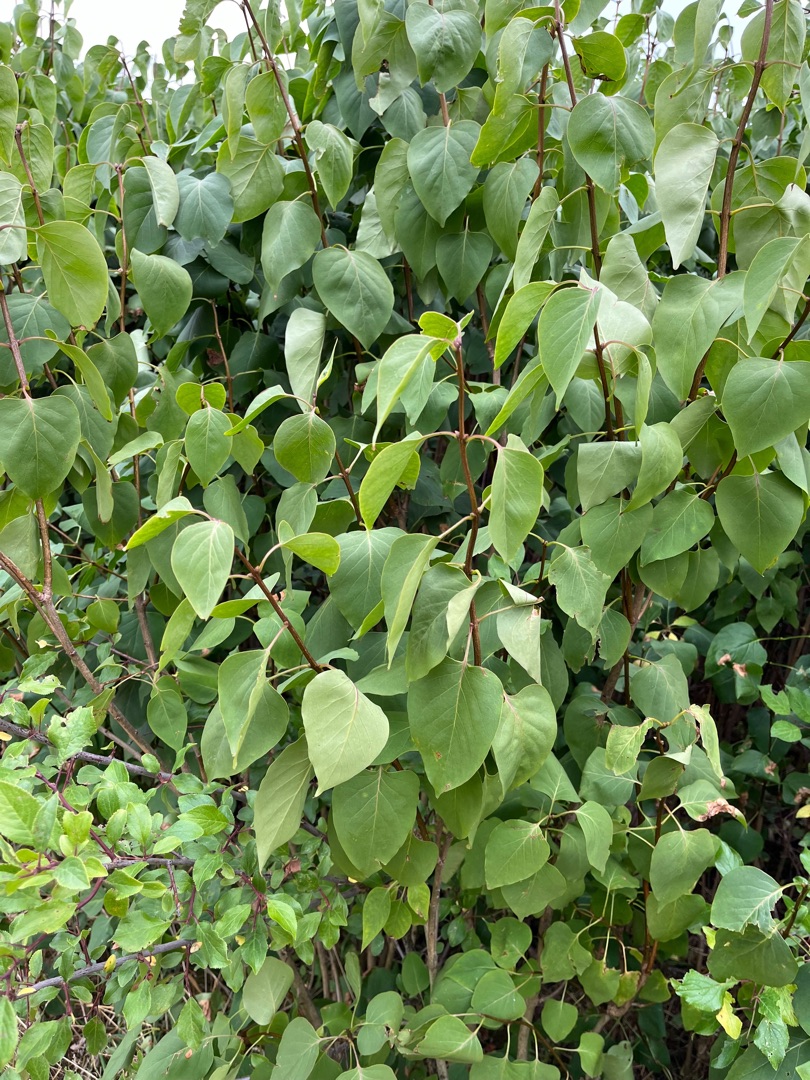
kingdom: Plantae
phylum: Tracheophyta
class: Magnoliopsida
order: Lamiales
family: Oleaceae
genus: Syringa
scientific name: Syringa vulgaris
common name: Syren
